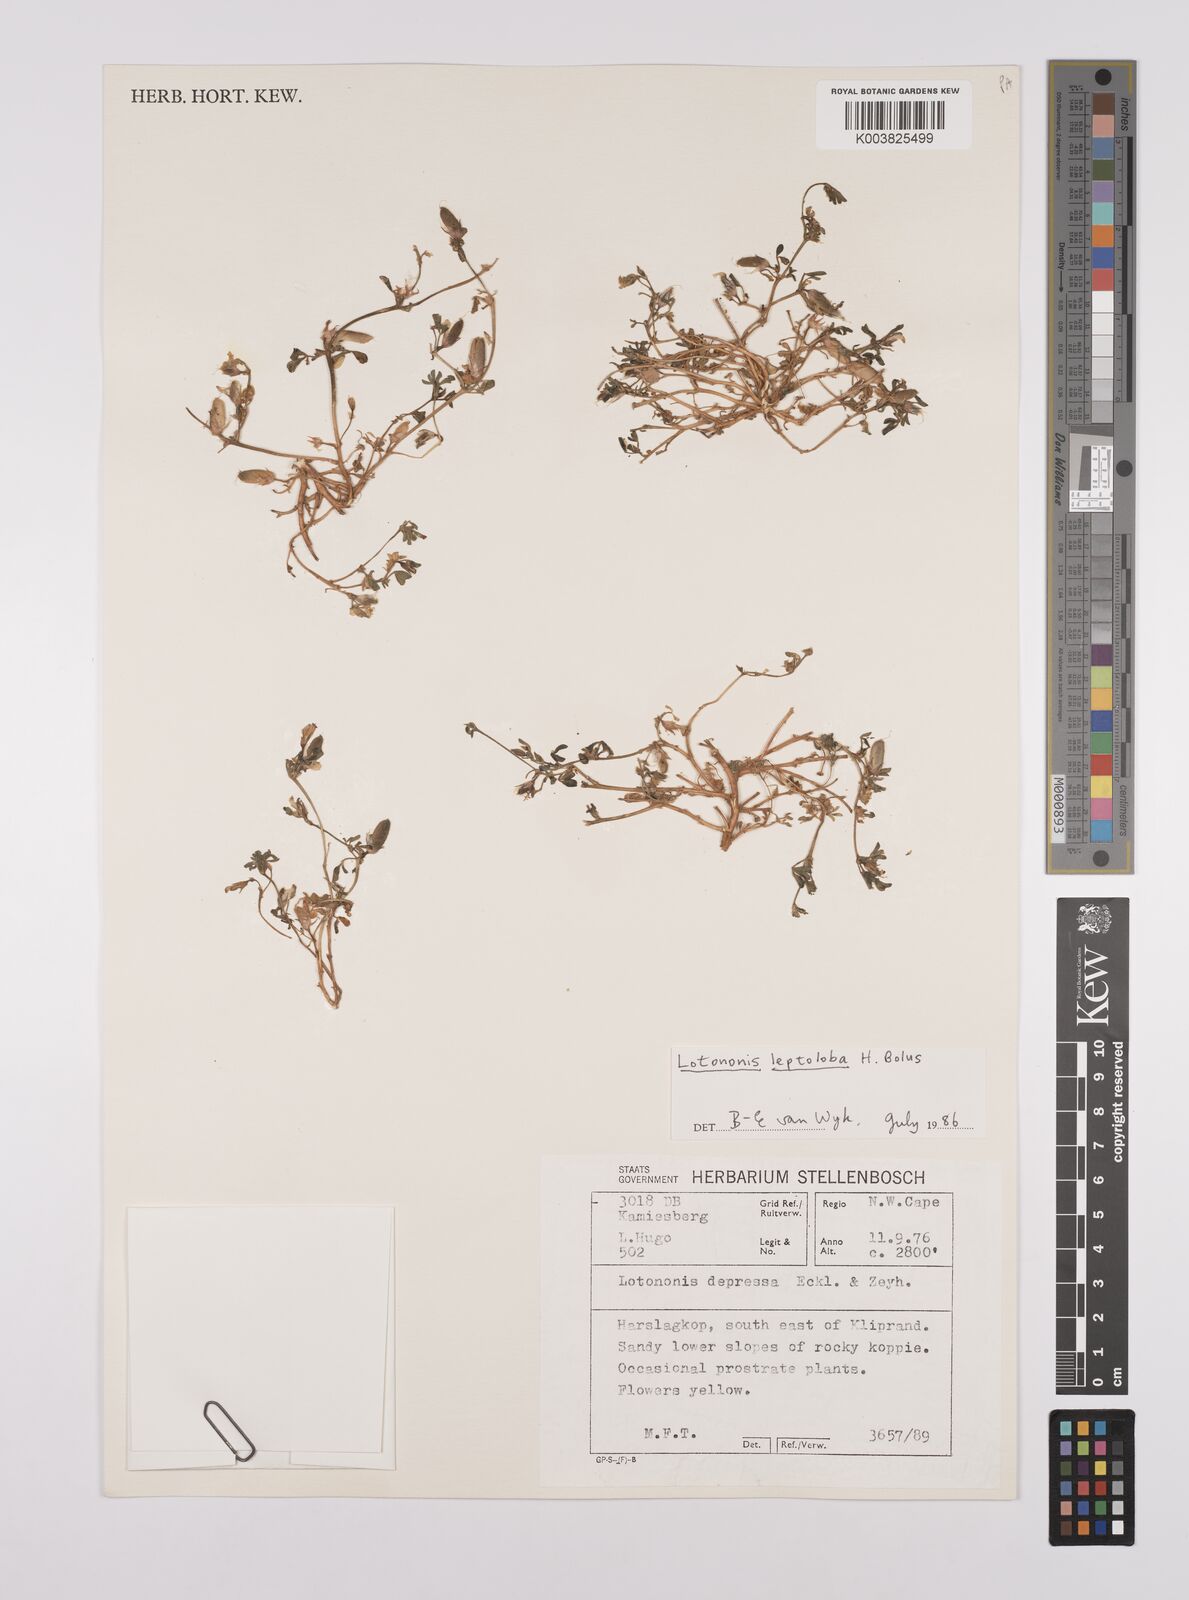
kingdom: Plantae
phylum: Tracheophyta
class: Magnoliopsida
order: Fabales
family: Fabaceae
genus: Lotononis
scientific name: Lotononis leptoloba
